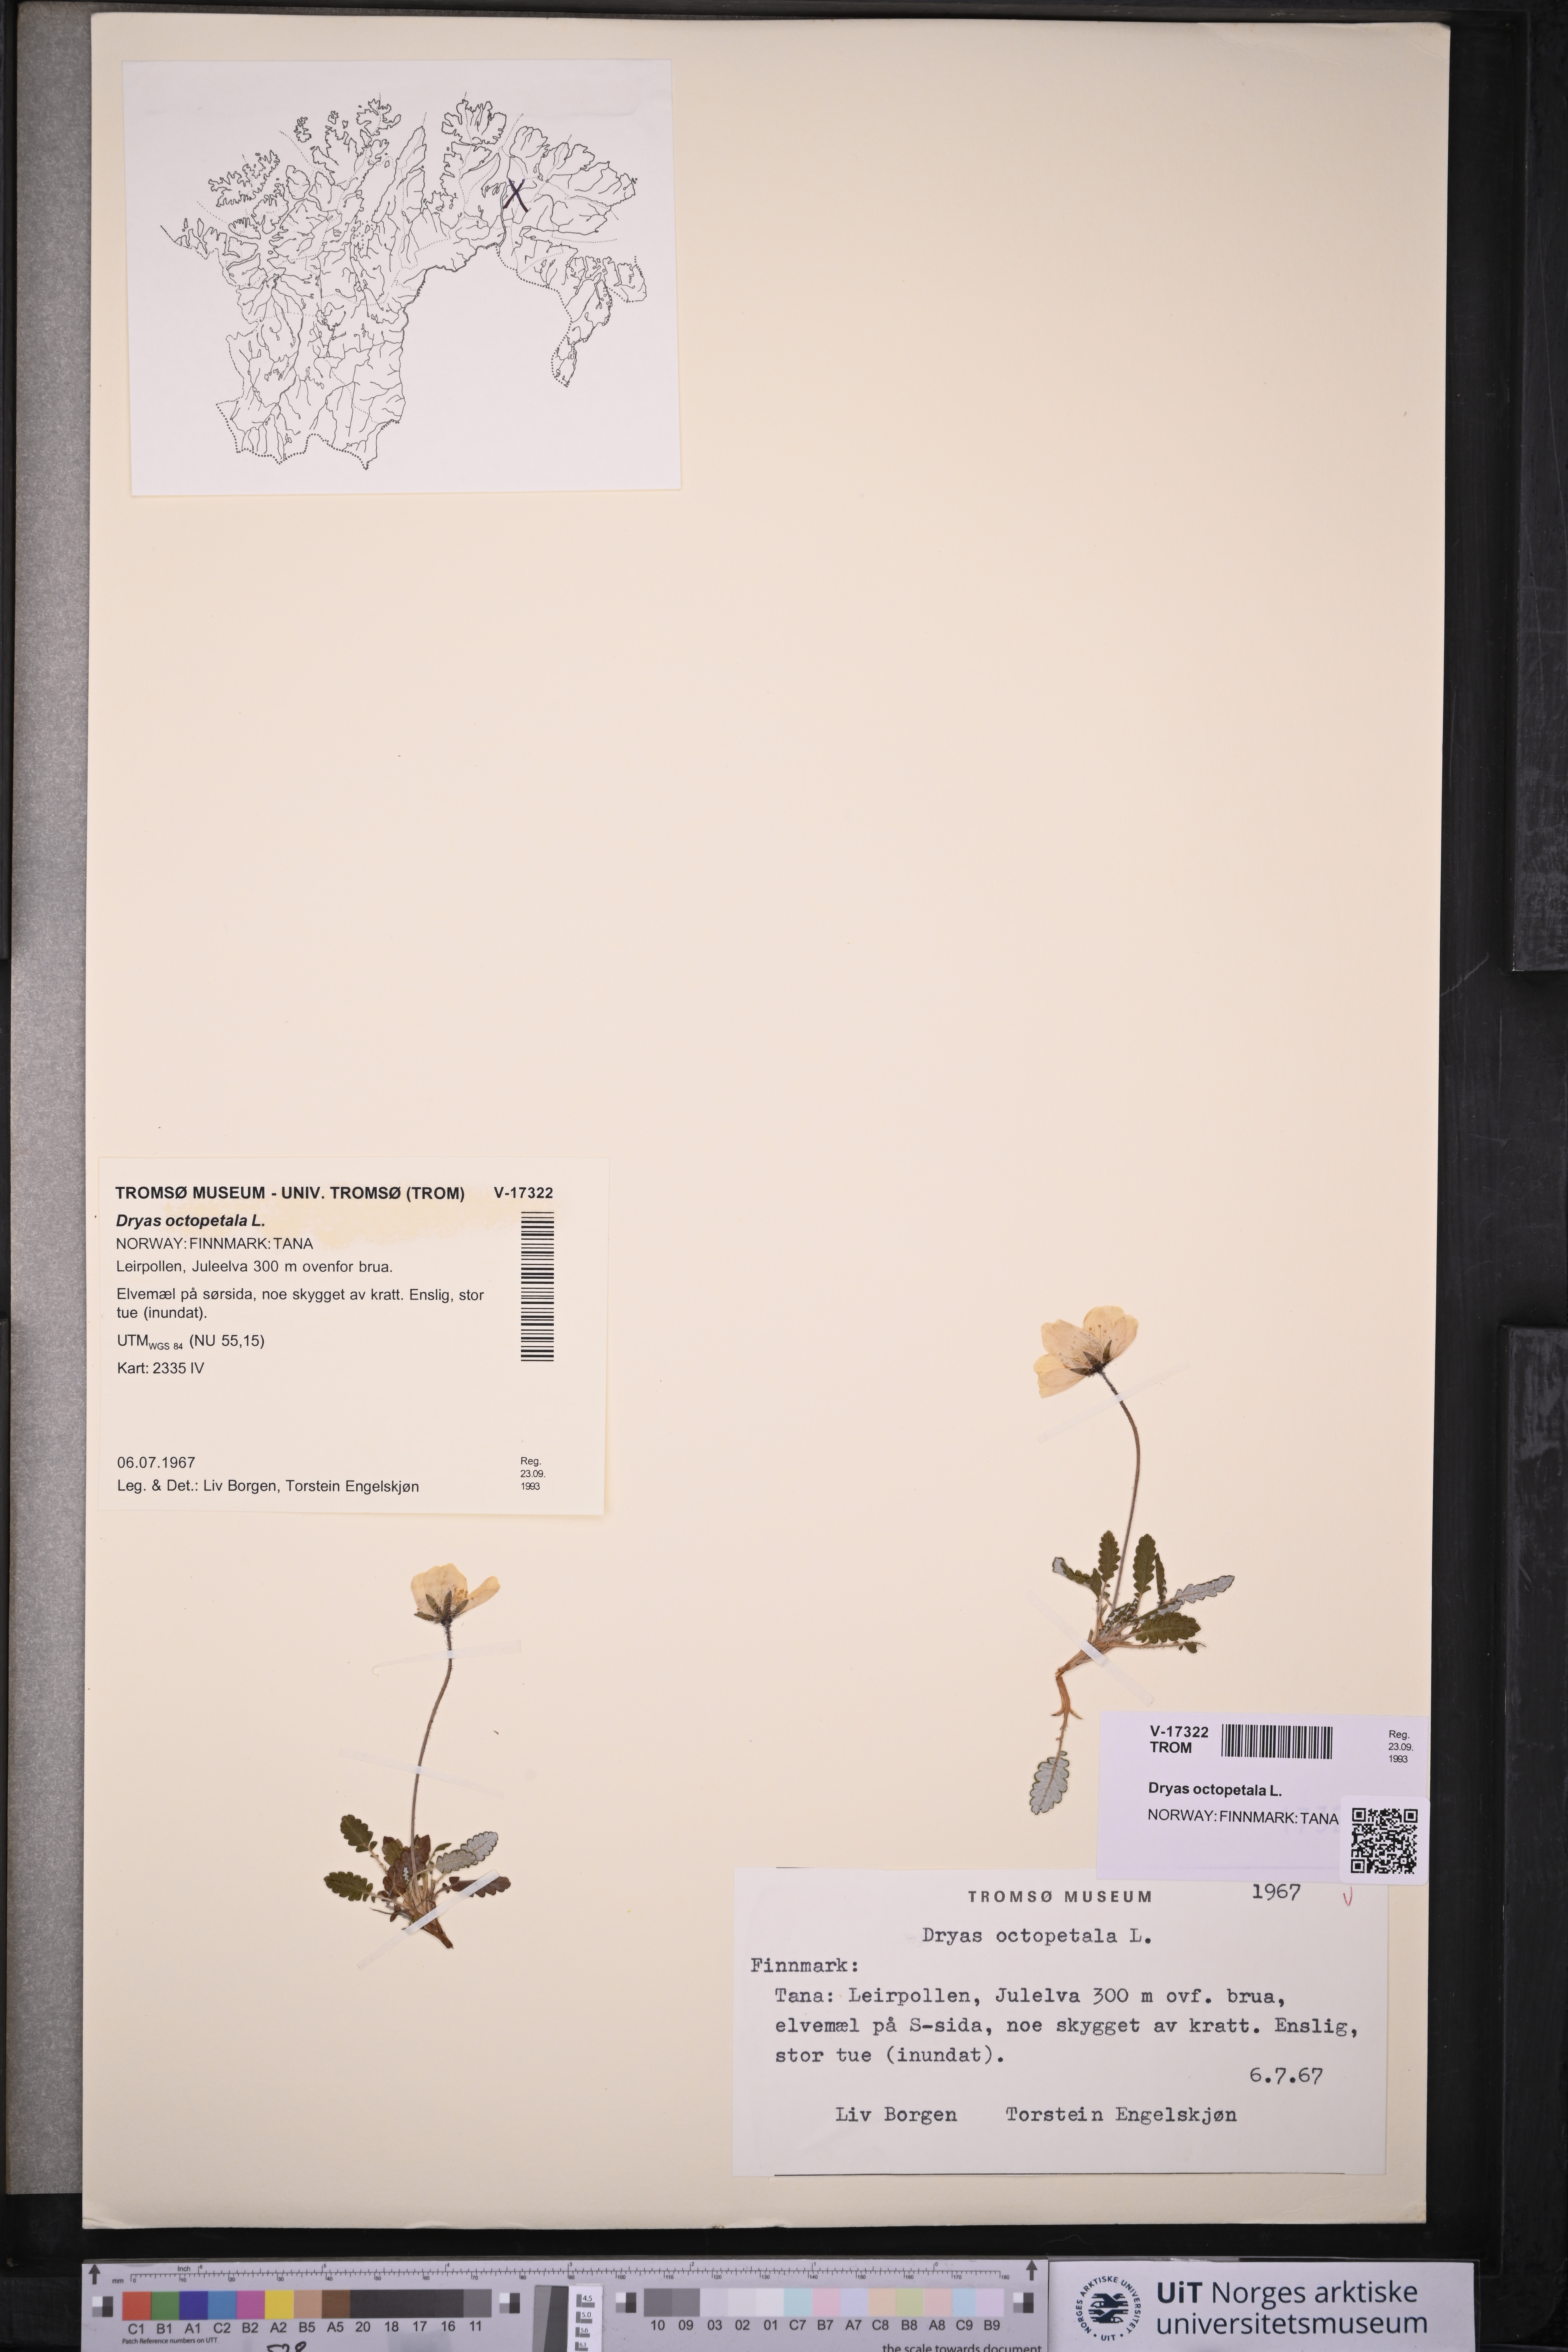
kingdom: Plantae
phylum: Tracheophyta
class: Magnoliopsida
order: Rosales
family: Rosaceae
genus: Dryas
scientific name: Dryas octopetala
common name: Eight-petal mountain-avens
